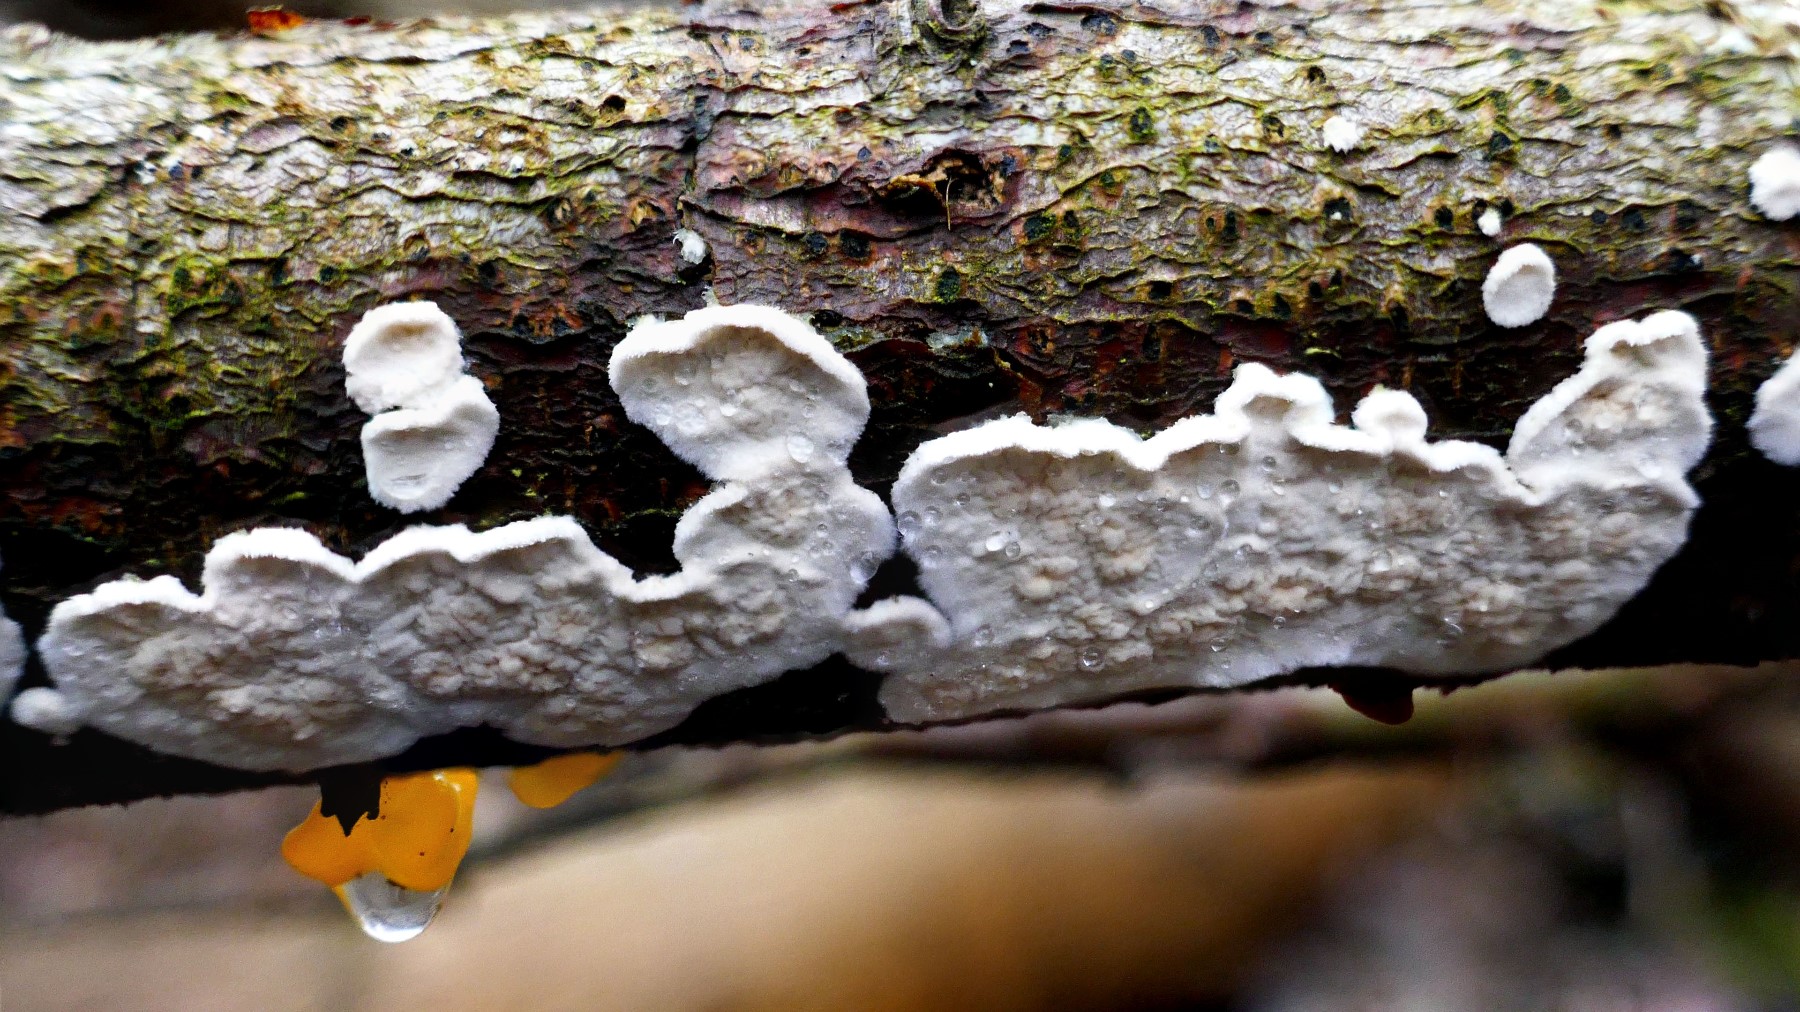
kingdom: Fungi
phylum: Basidiomycota
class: Agaricomycetes
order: Polyporales
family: Irpicaceae
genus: Byssomerulius
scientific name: Byssomerulius corium
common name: læder-åresvamp
